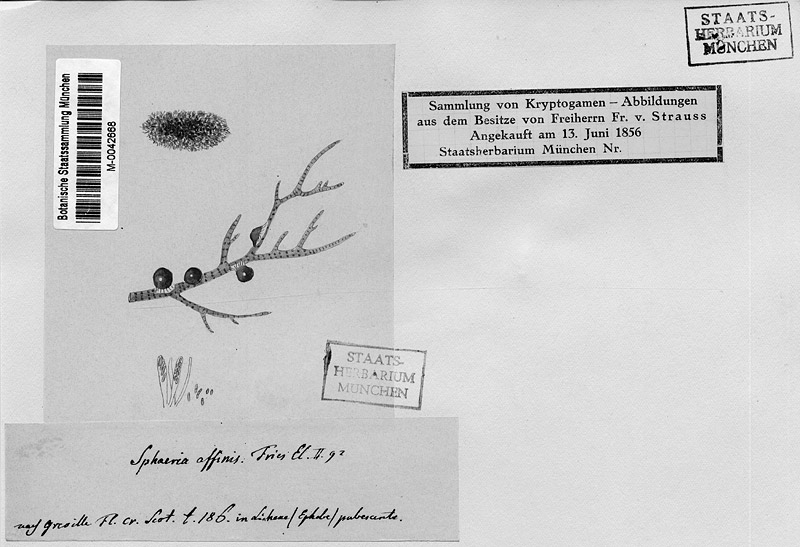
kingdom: Fungi
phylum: Ascomycota
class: Lecanoromycetes
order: Lecanorales
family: Parmeliaceae
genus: Pseudephebe
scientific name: Pseudephebe pubescens
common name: Fine rockwool lichen
